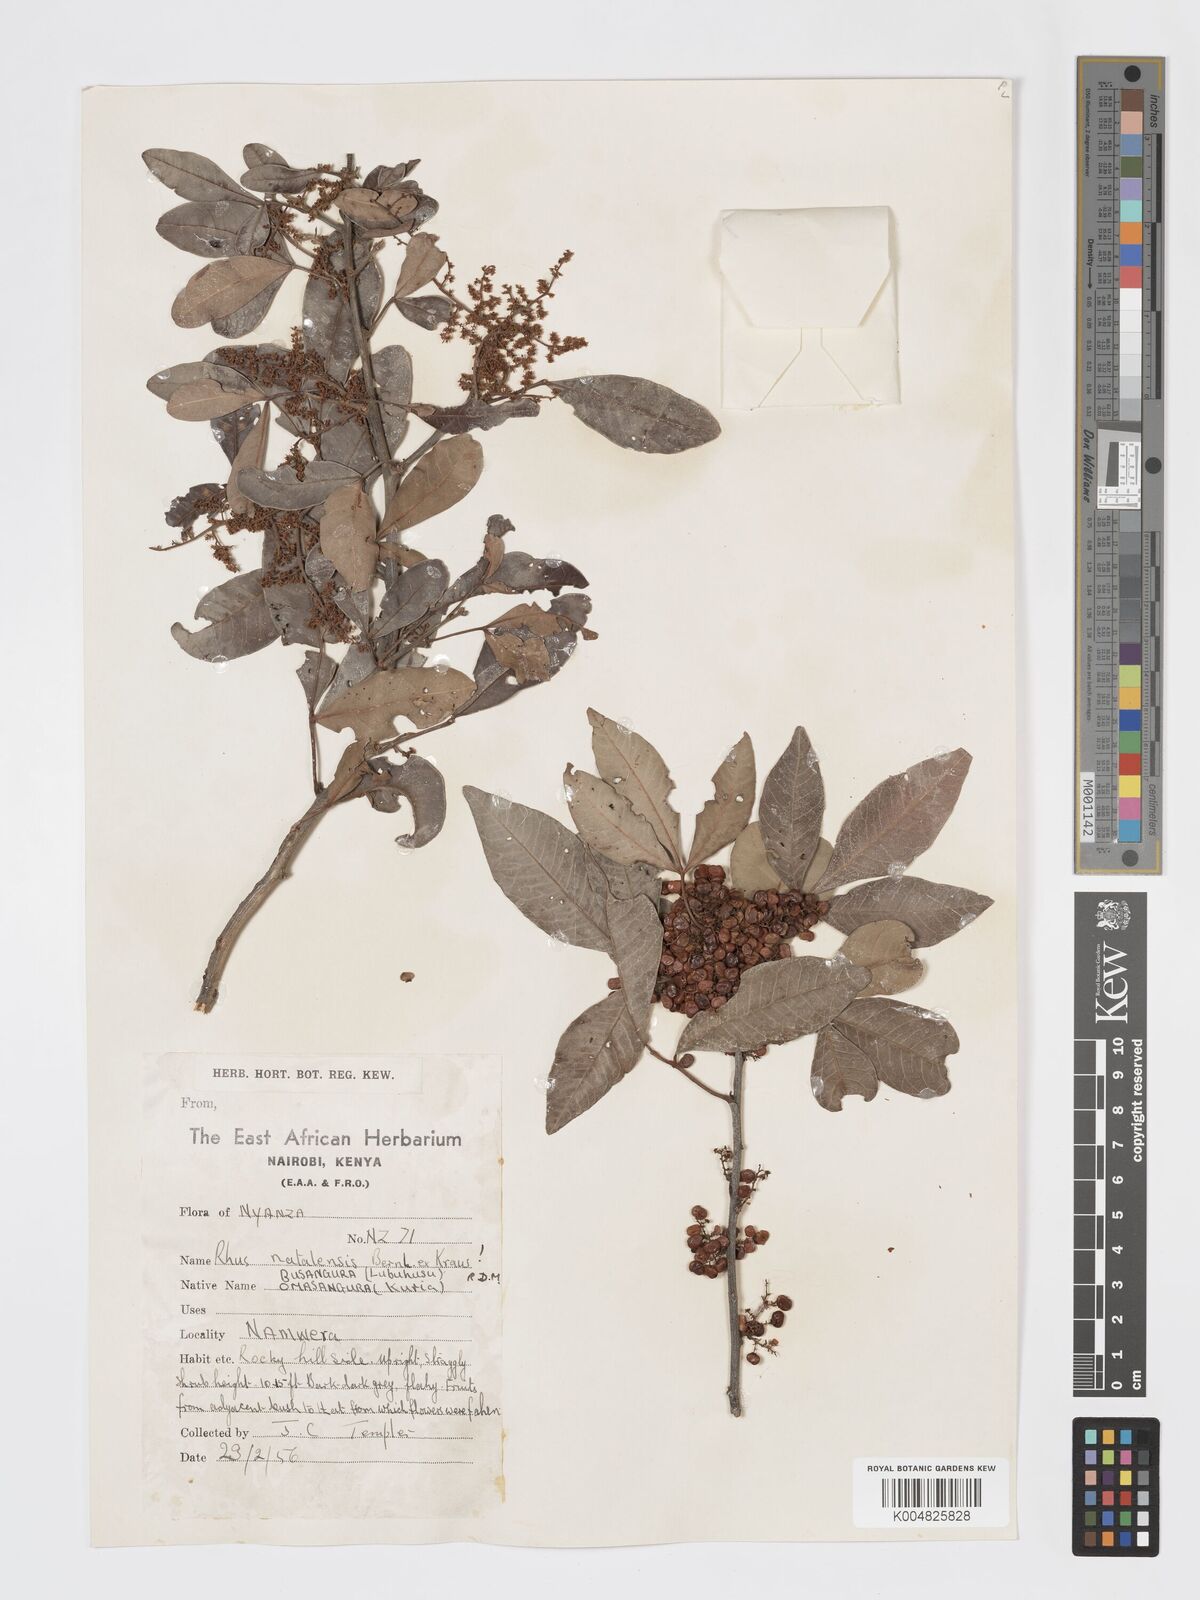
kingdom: Plantae
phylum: Tracheophyta
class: Magnoliopsida
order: Sapindales
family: Anacardiaceae
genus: Searsia
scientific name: Searsia natalensis
